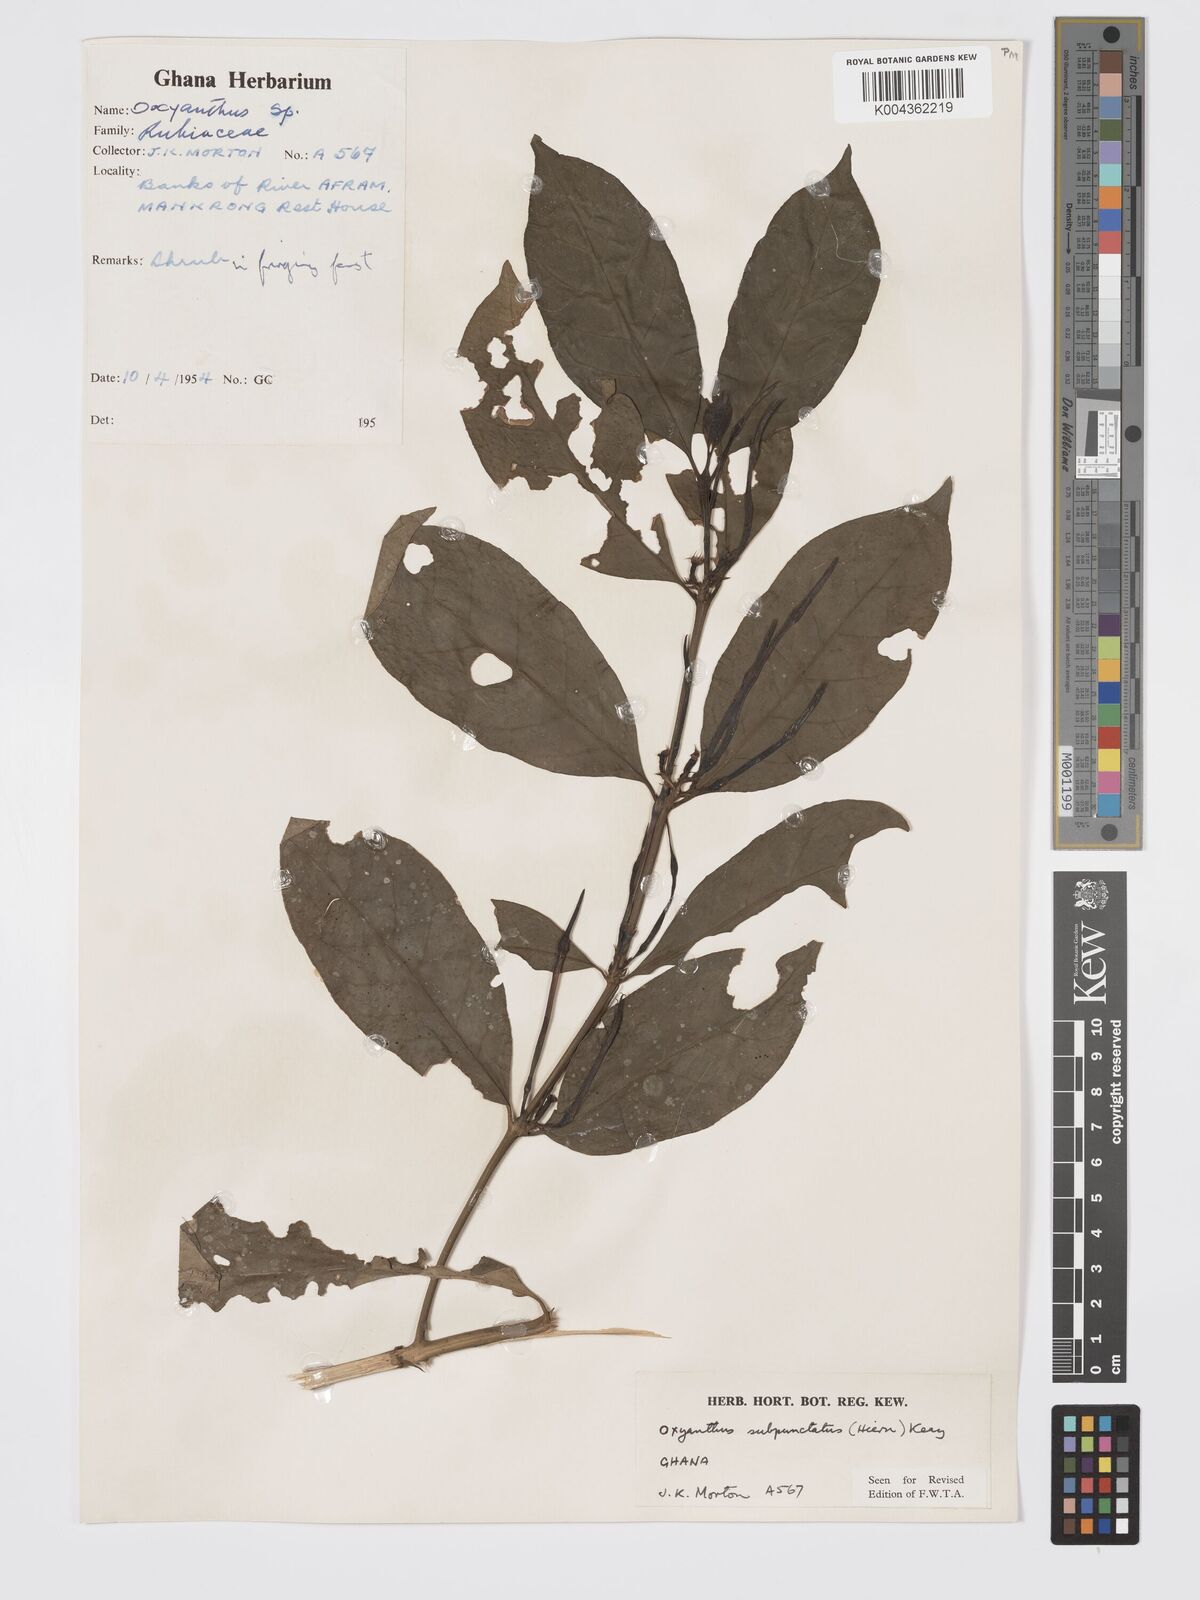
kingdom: Plantae
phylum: Tracheophyta
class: Magnoliopsida
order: Gentianales
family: Rubiaceae
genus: Oxyanthus
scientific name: Oxyanthus subpunctatus
